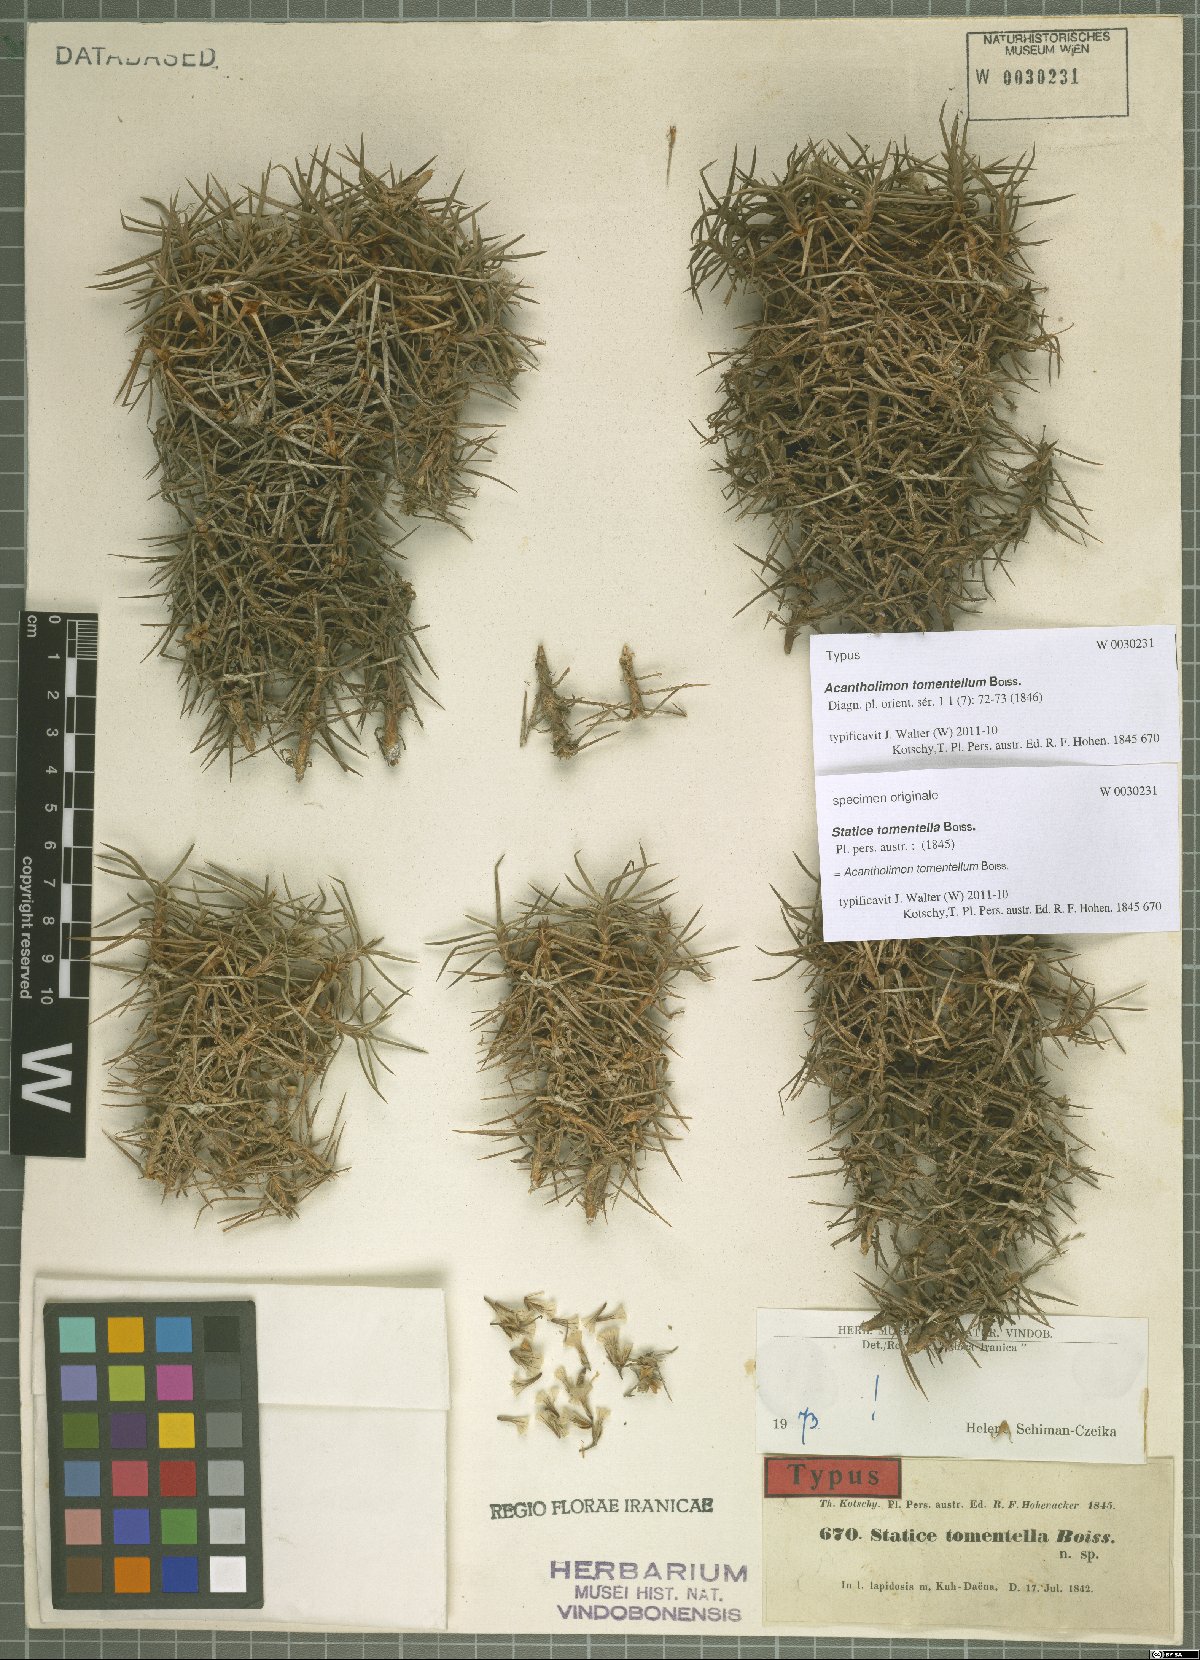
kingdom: Plantae
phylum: Tracheophyta
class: Magnoliopsida
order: Caryophyllales
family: Plumbaginaceae
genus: Acantholimon
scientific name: Acantholimon tomentellum
